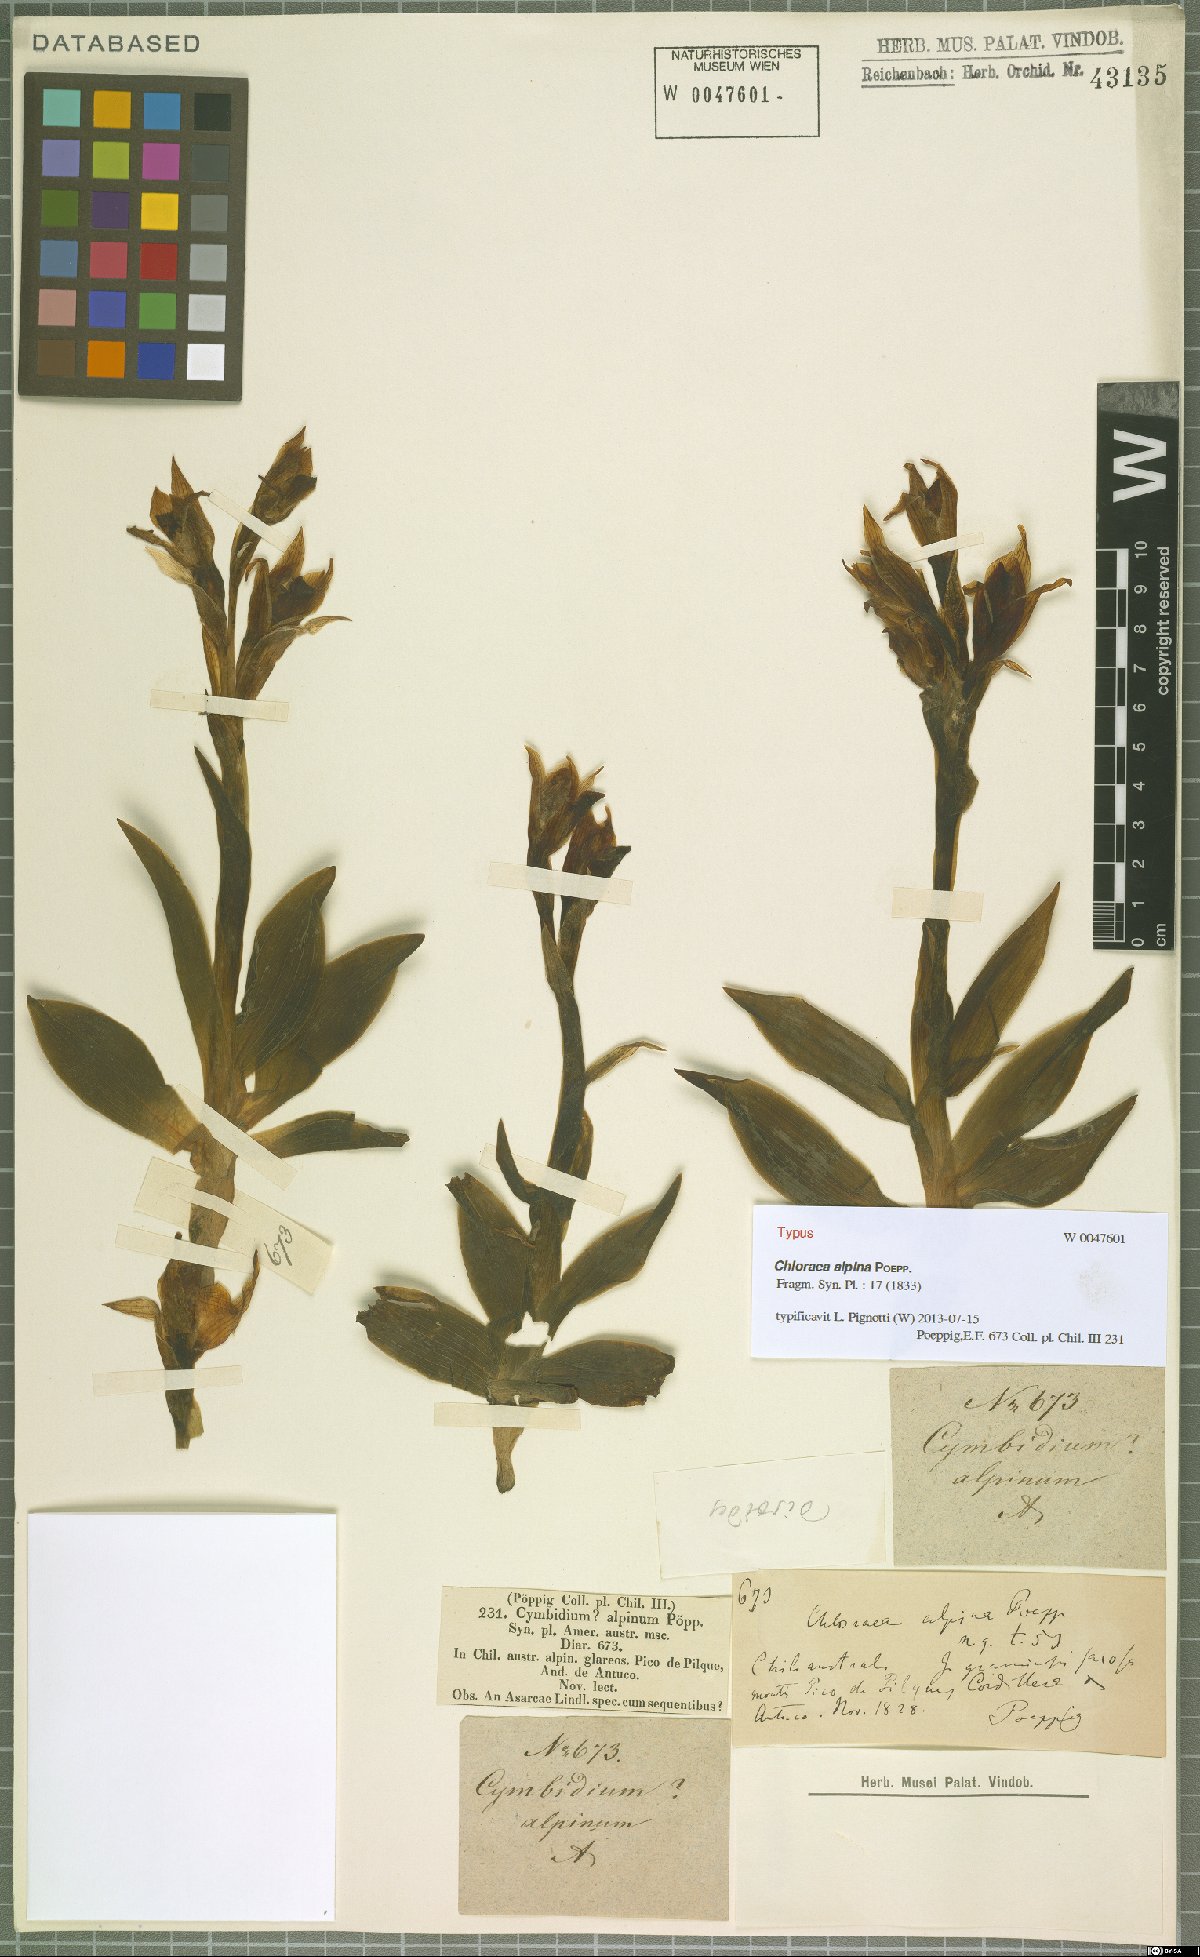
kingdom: Plantae
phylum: Tracheophyta
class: Liliopsida
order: Asparagales
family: Orchidaceae
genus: Chloraea
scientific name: Chloraea alpina
